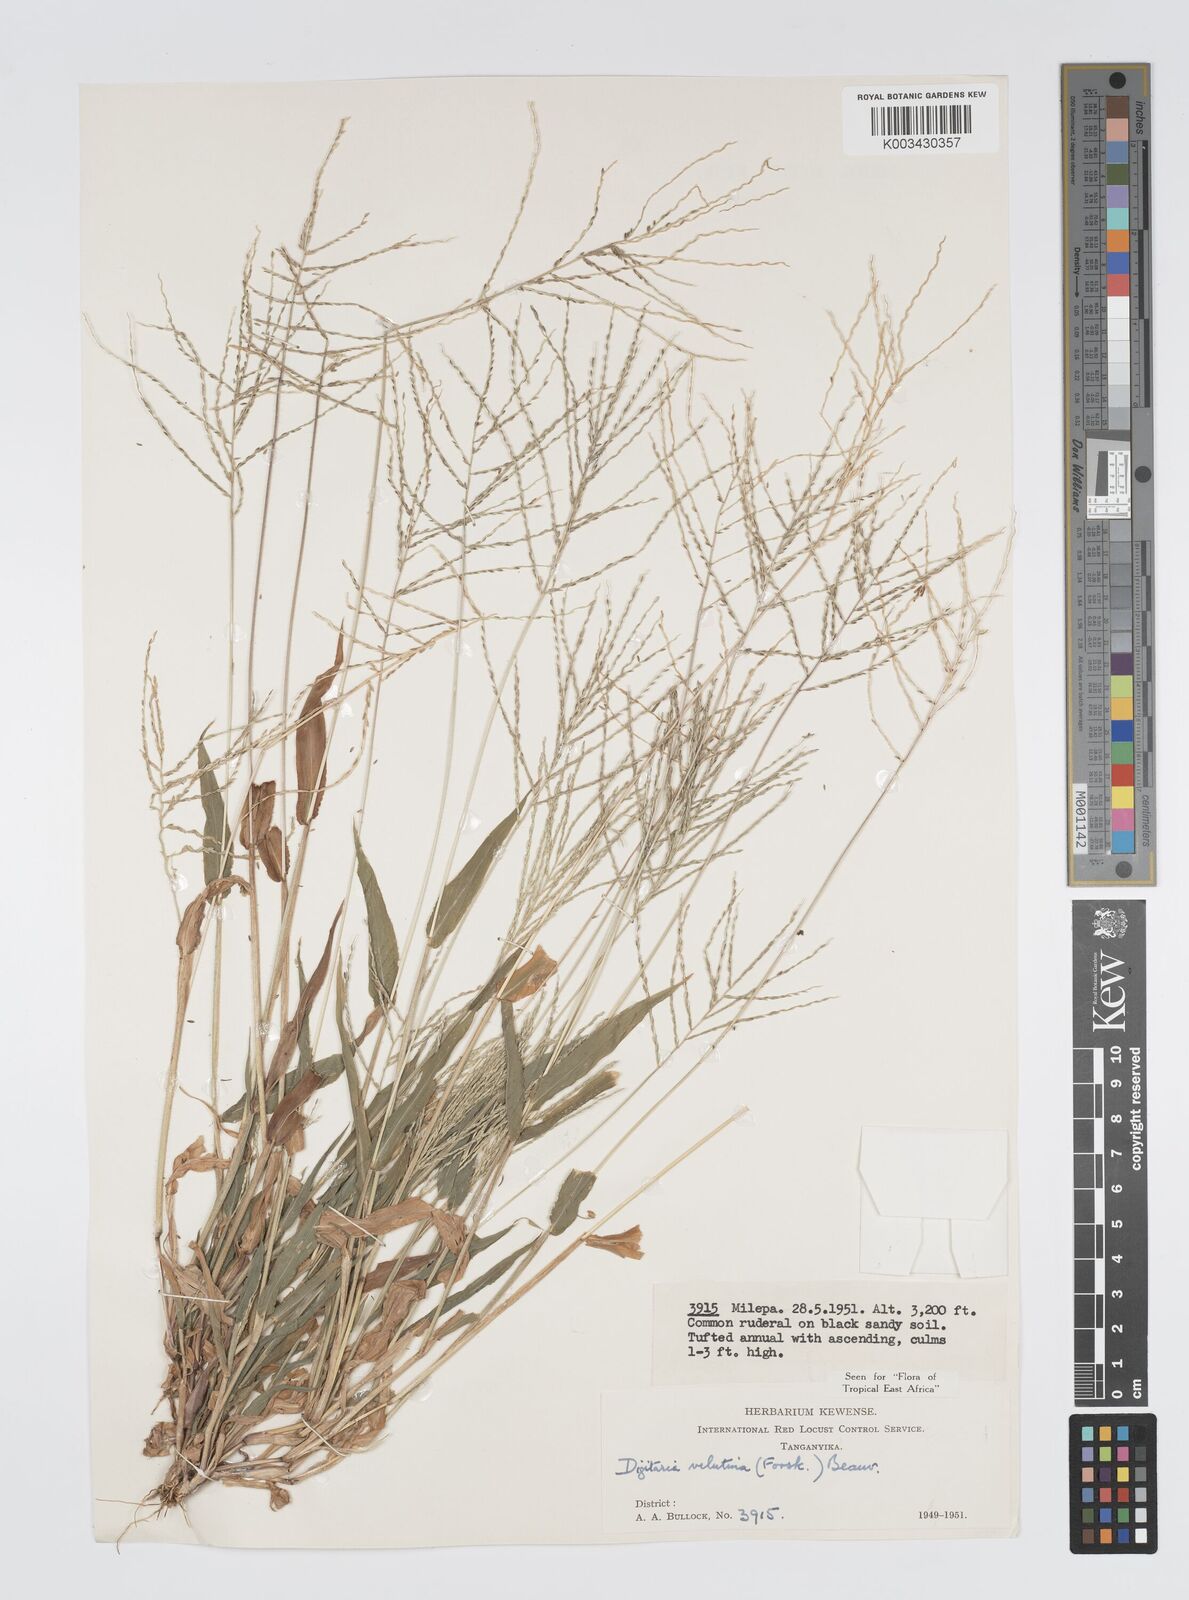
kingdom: Plantae
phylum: Tracheophyta
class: Liliopsida
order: Poales
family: Poaceae
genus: Digitaria
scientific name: Digitaria velutina
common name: Long-plume finger grass
